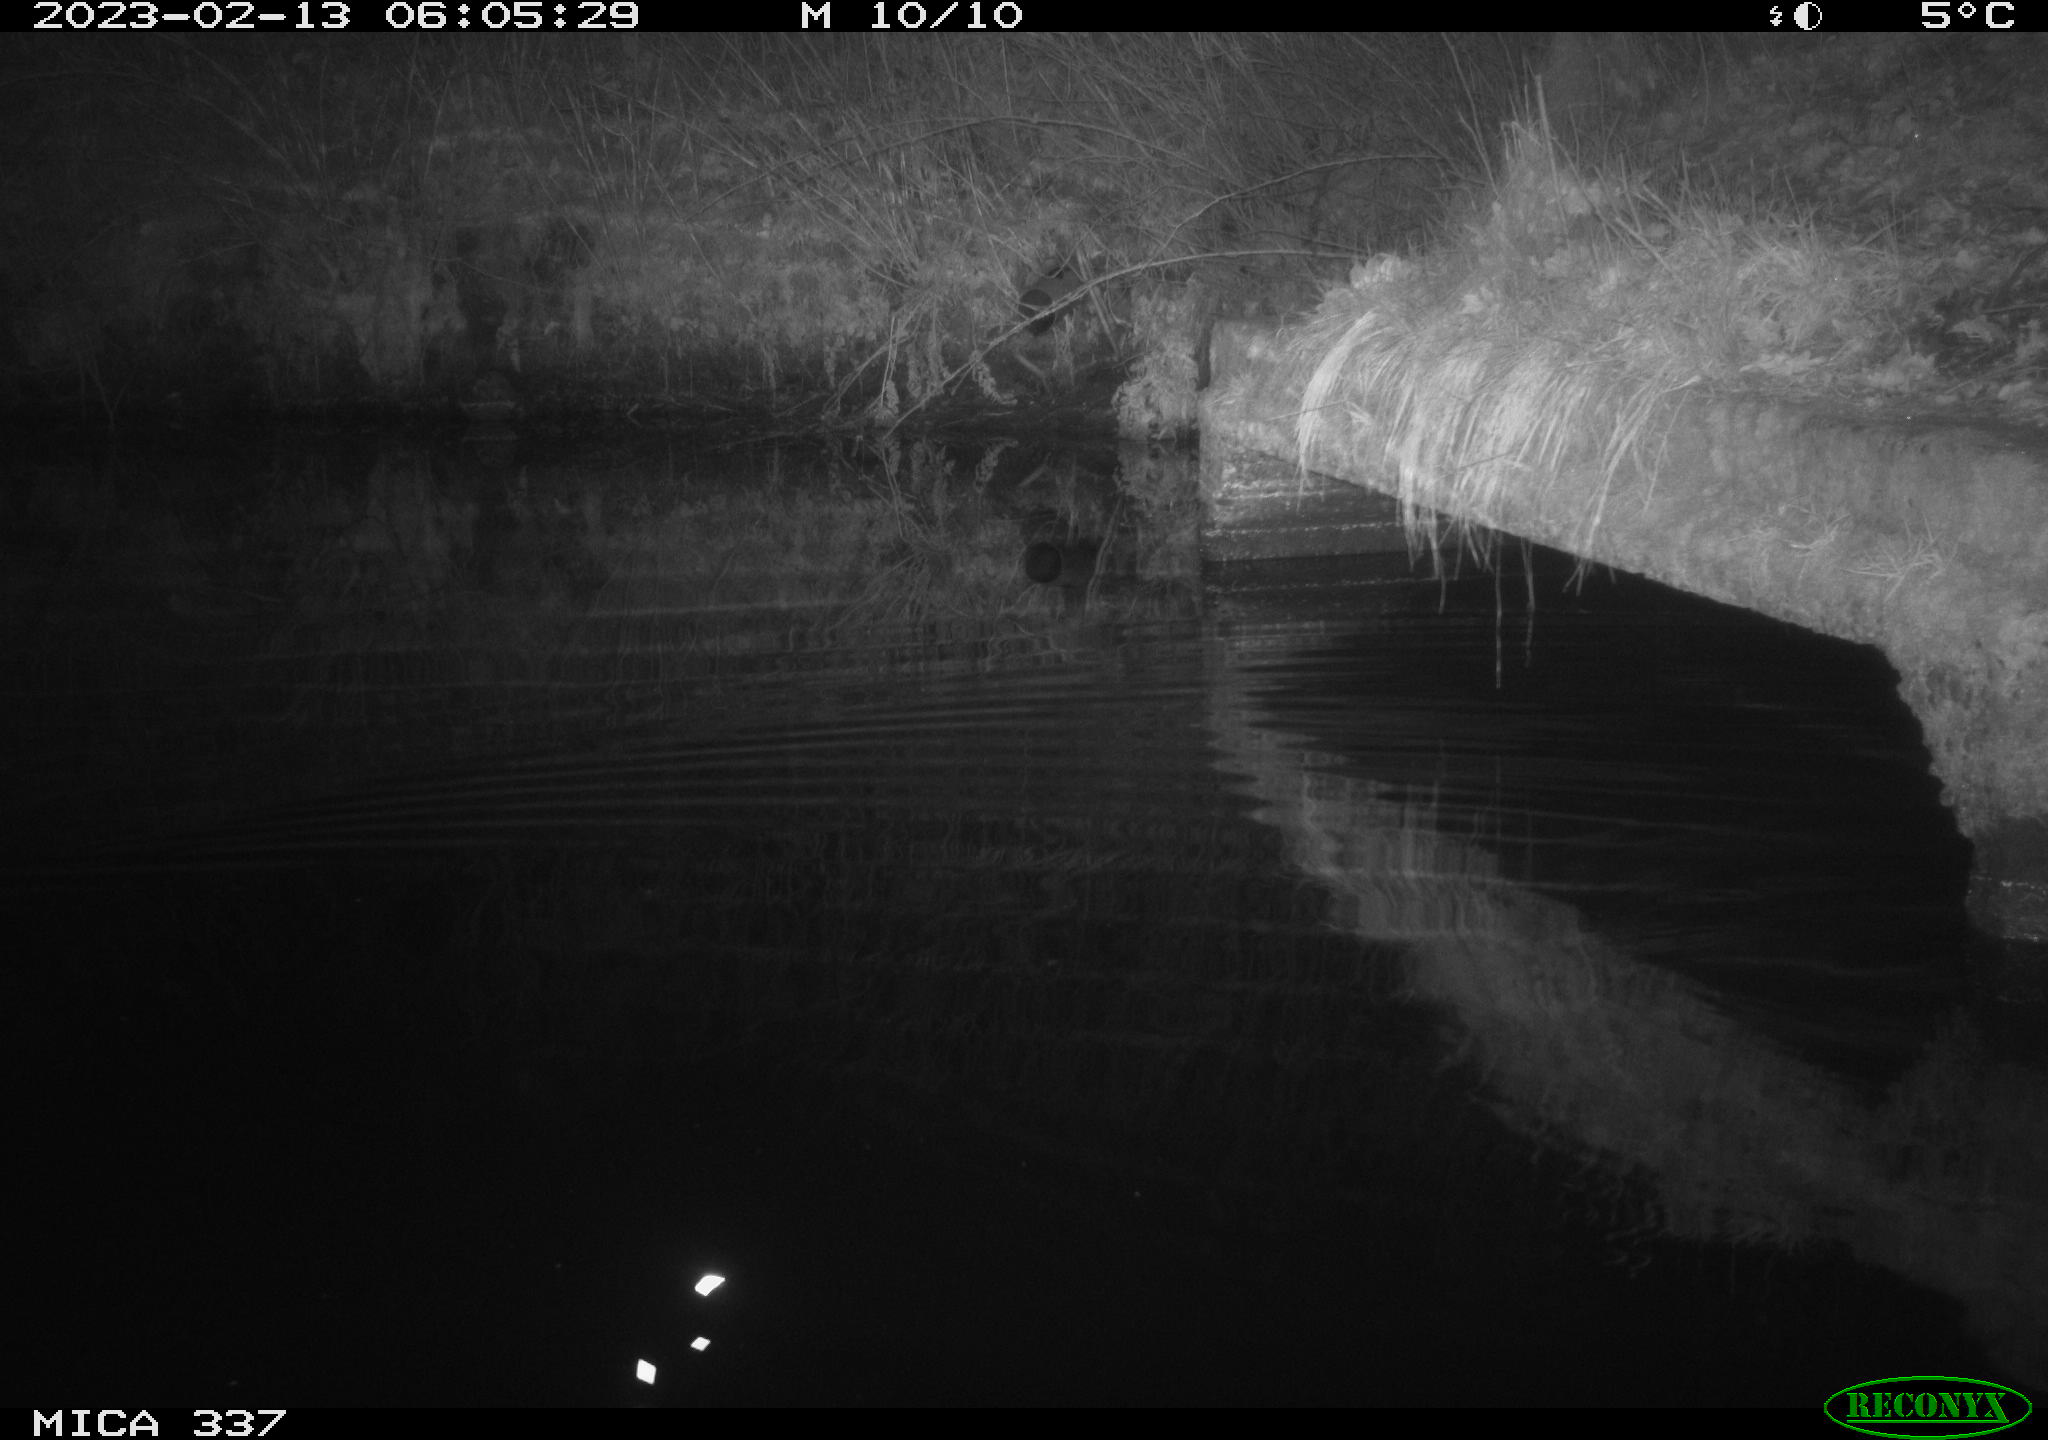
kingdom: Animalia
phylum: Chordata
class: Mammalia
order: Rodentia
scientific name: Rodentia
